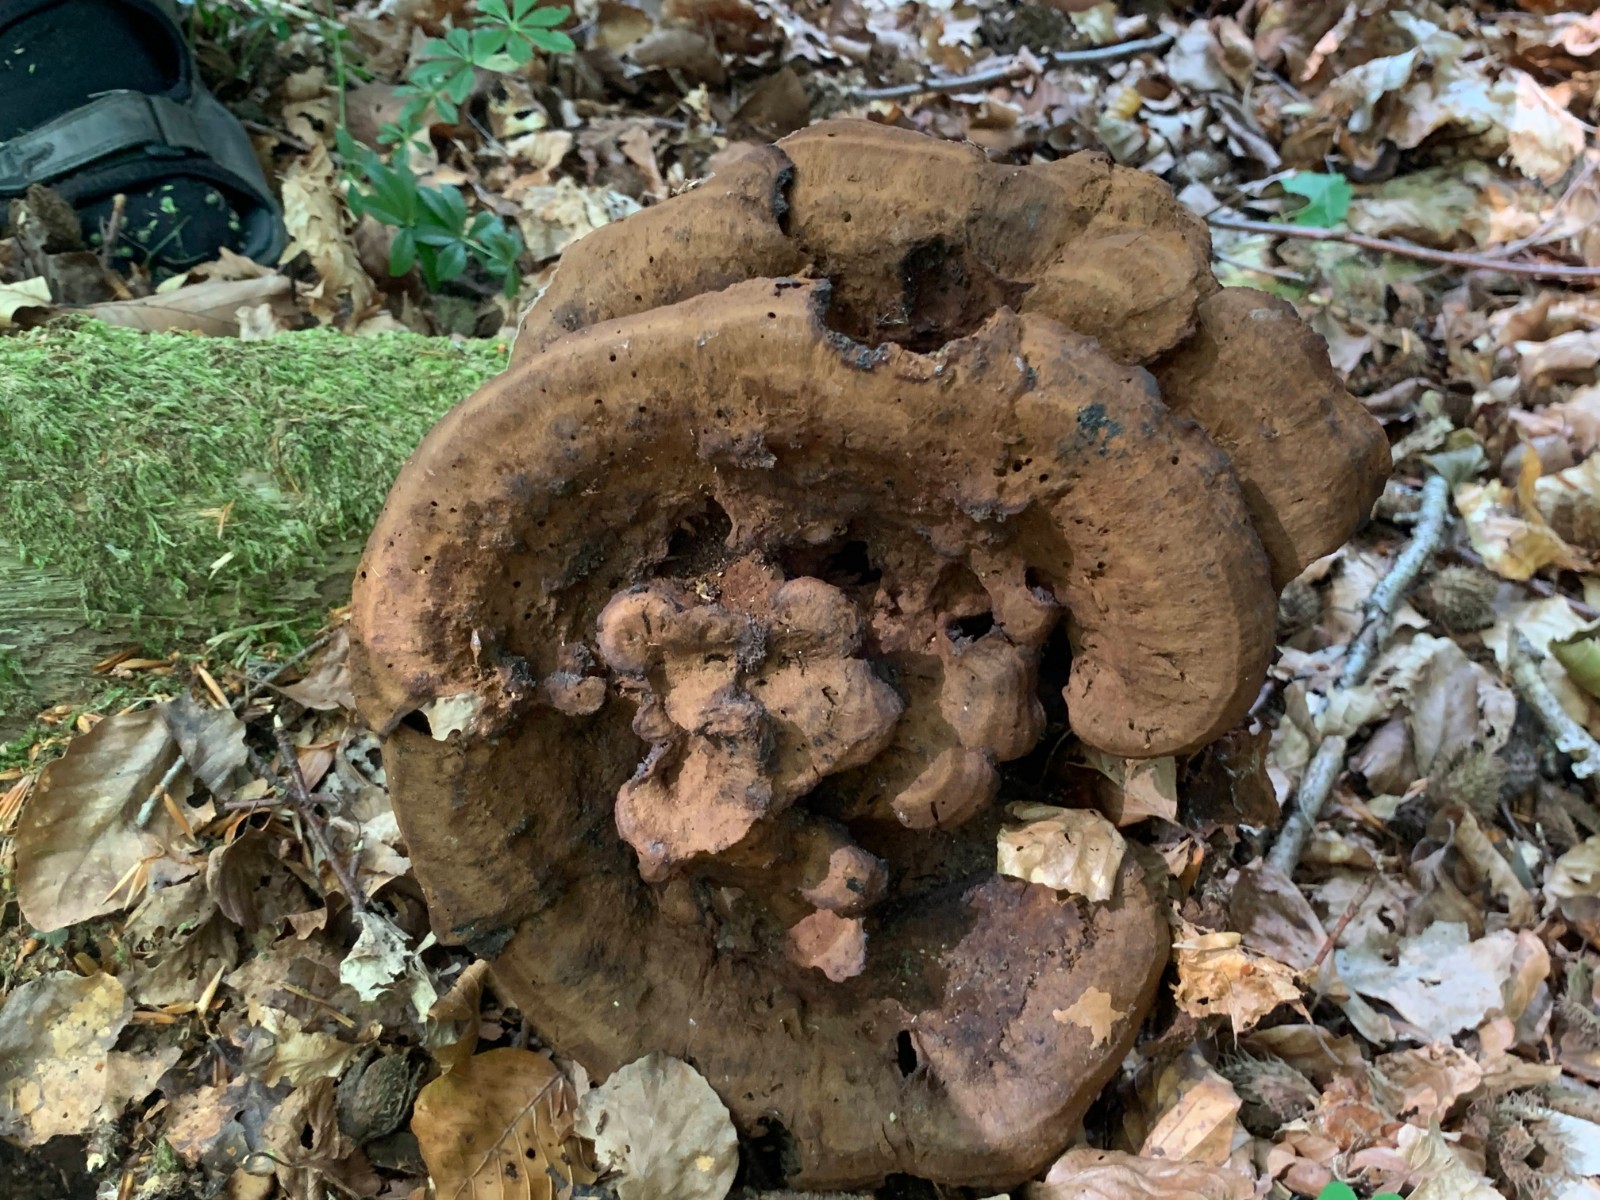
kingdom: Fungi
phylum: Basidiomycota
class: Agaricomycetes
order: Polyporales
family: Laetiporaceae
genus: Phaeolus
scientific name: Phaeolus schweinitzii
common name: brunporesvamp
